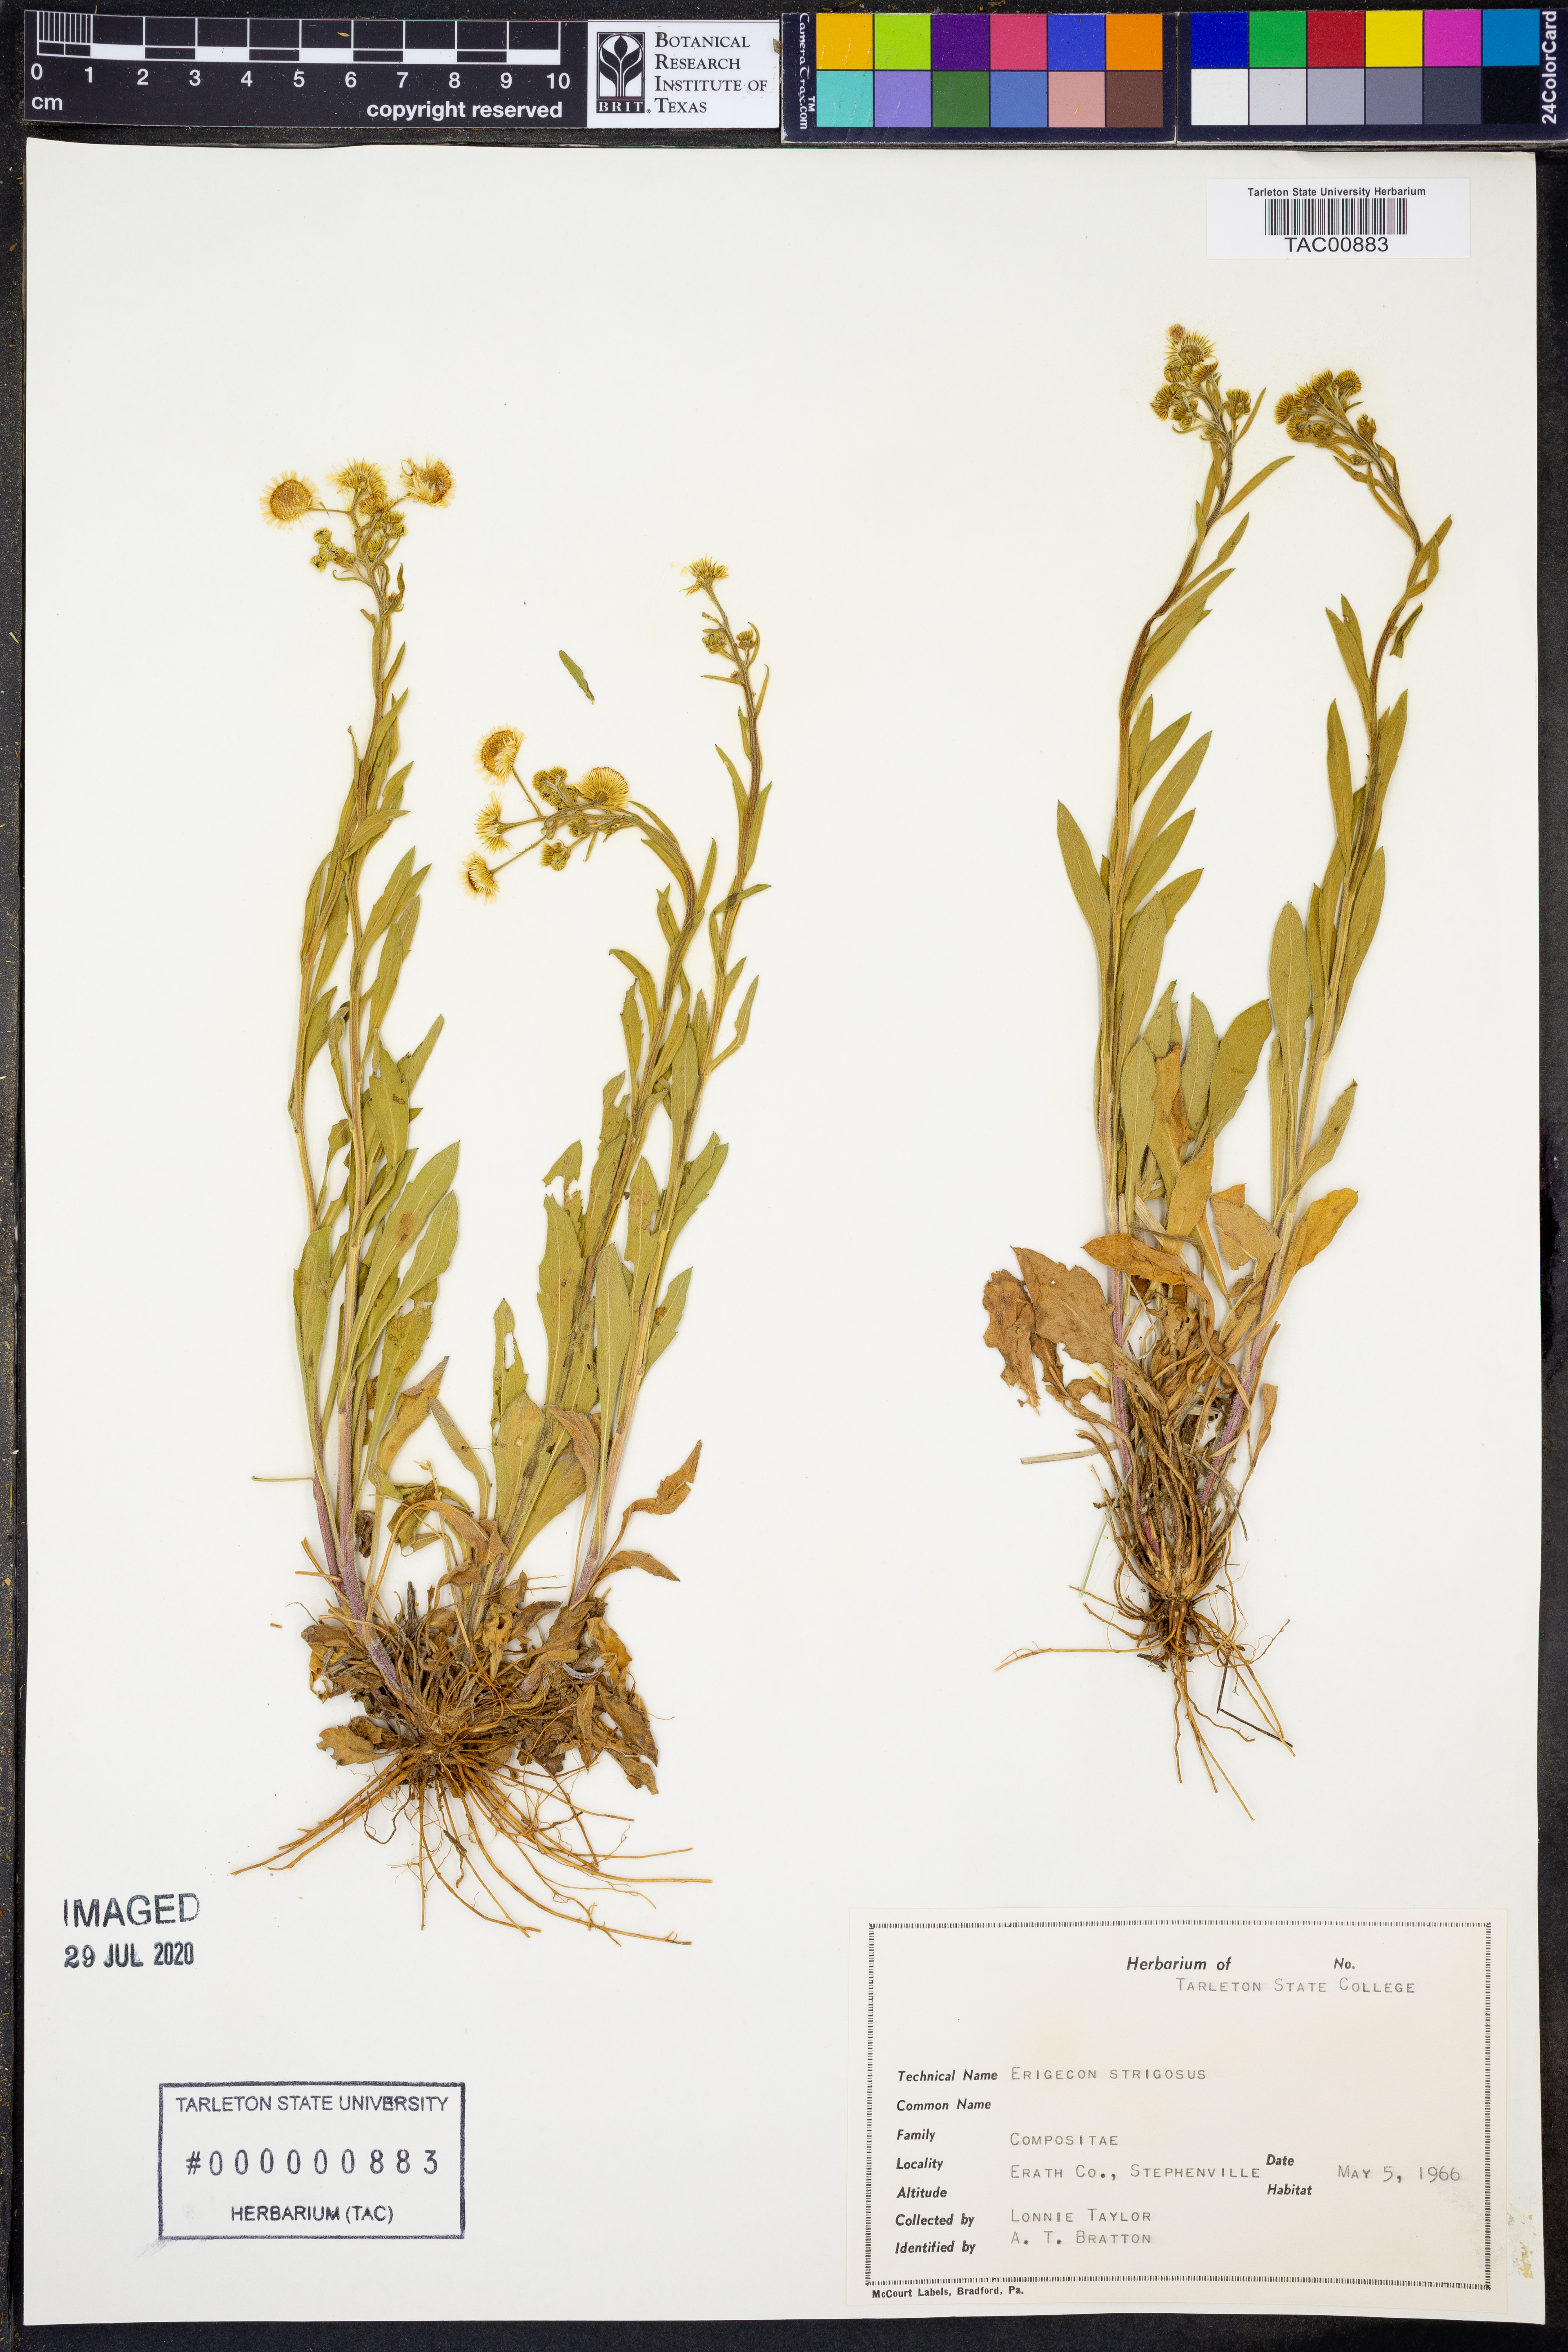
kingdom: Plantae
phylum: Tracheophyta
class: Magnoliopsida
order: Asterales
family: Asteraceae
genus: Erigeron
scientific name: Erigeron strigosus
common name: Common eastern fleabane
